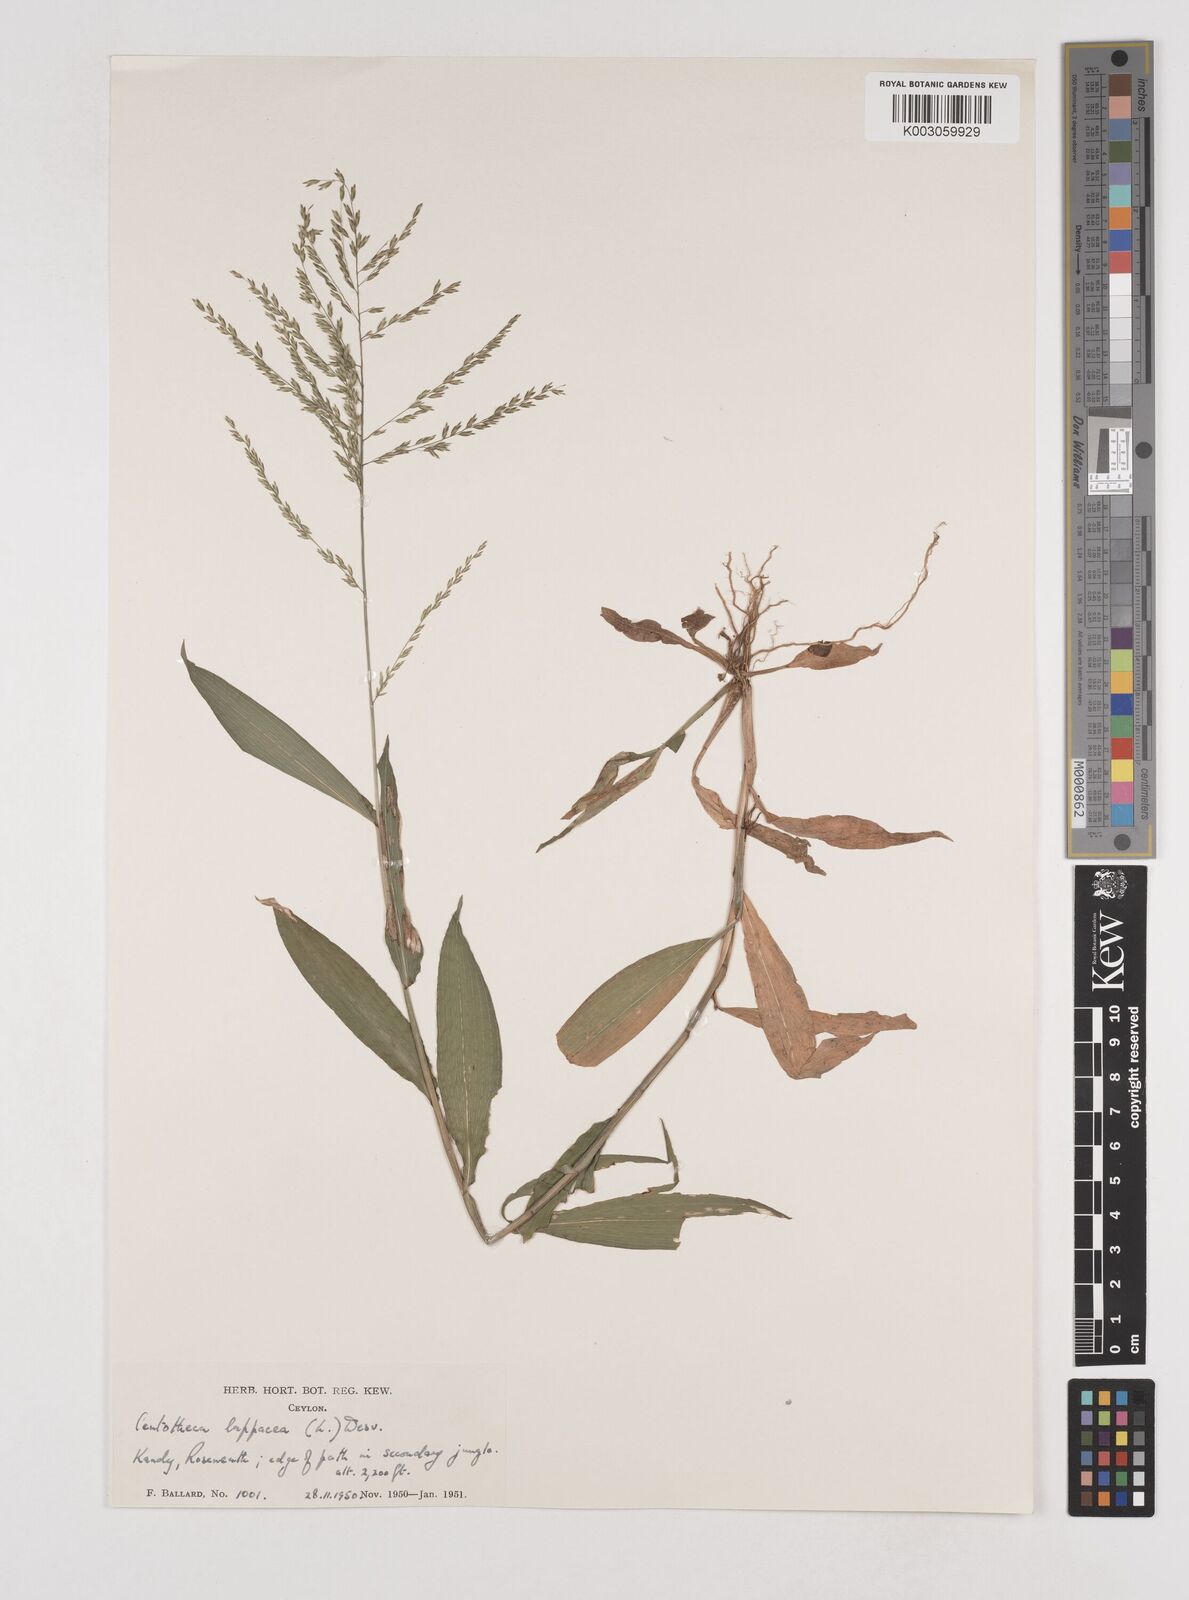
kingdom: Plantae
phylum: Tracheophyta
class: Liliopsida
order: Poales
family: Poaceae
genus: Centotheca
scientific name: Centotheca lappacea
